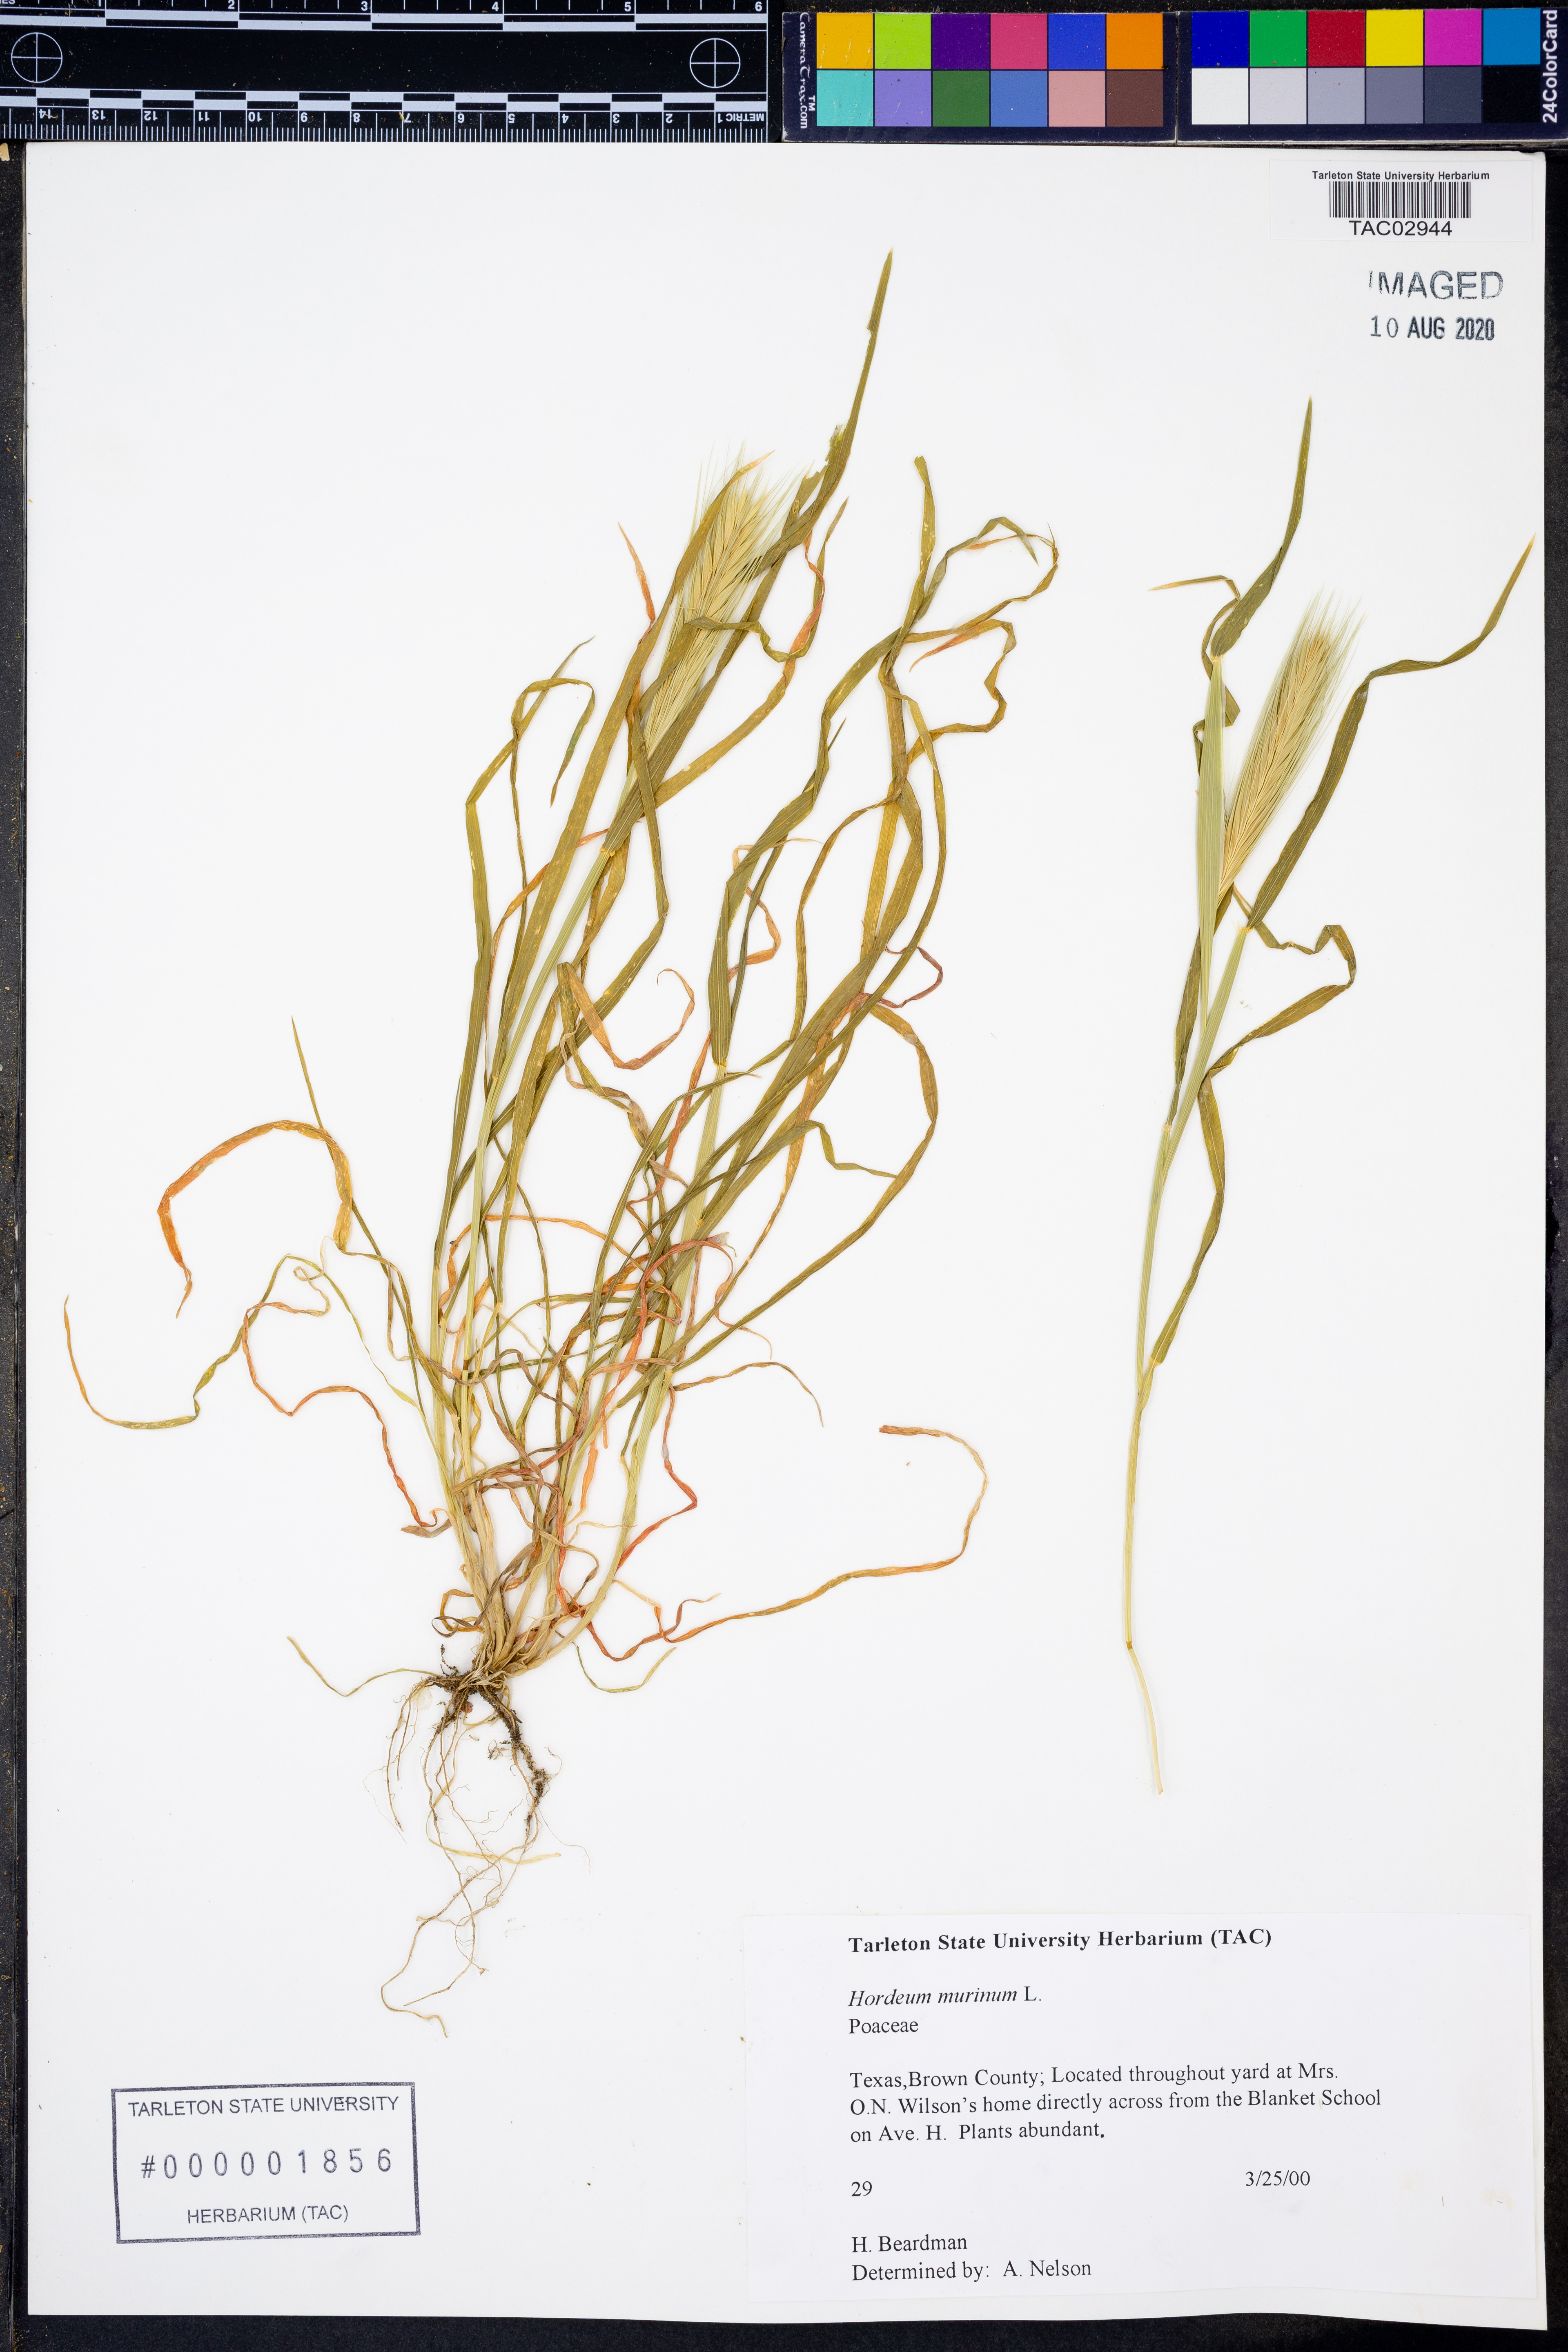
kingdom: Plantae
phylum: Tracheophyta
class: Liliopsida
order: Poales
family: Poaceae
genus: Hordeum
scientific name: Hordeum murinum
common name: Wall barley
